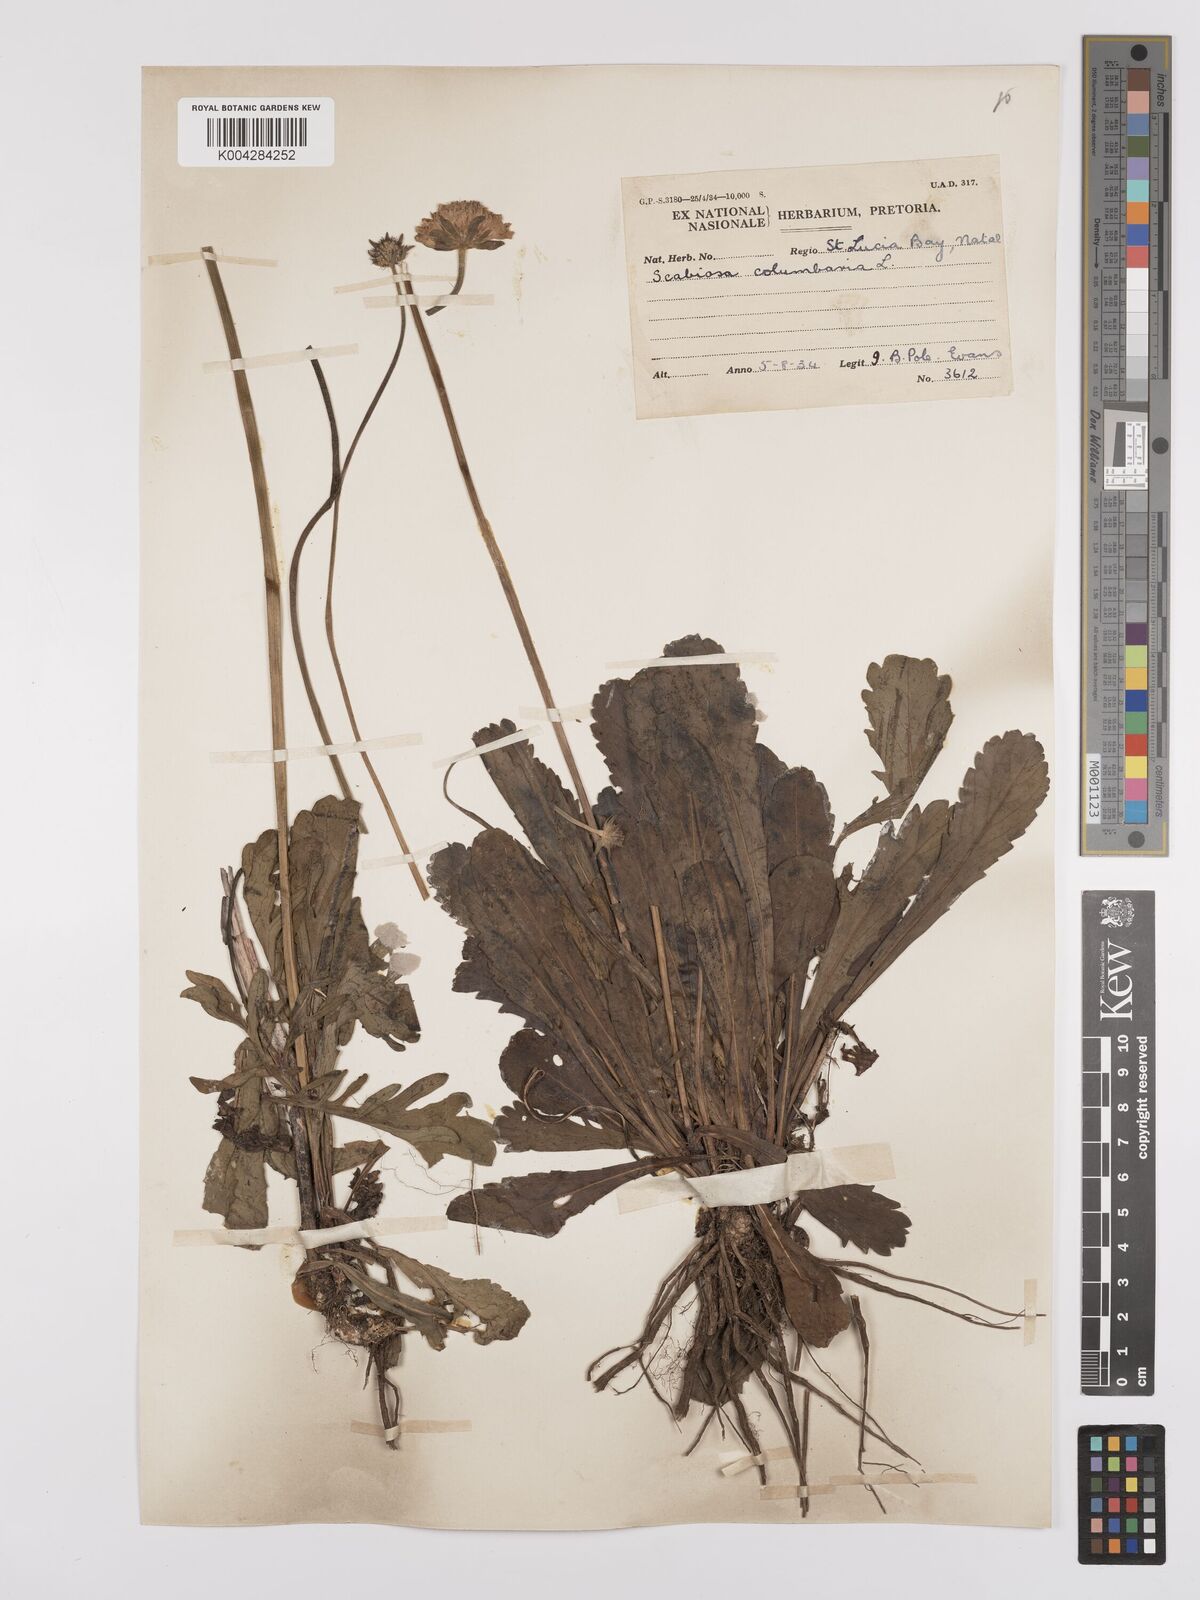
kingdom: Plantae
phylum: Tracheophyta
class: Magnoliopsida
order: Dipsacales
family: Caprifoliaceae
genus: Scabiosa
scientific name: Scabiosa columbaria
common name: Small scabious
